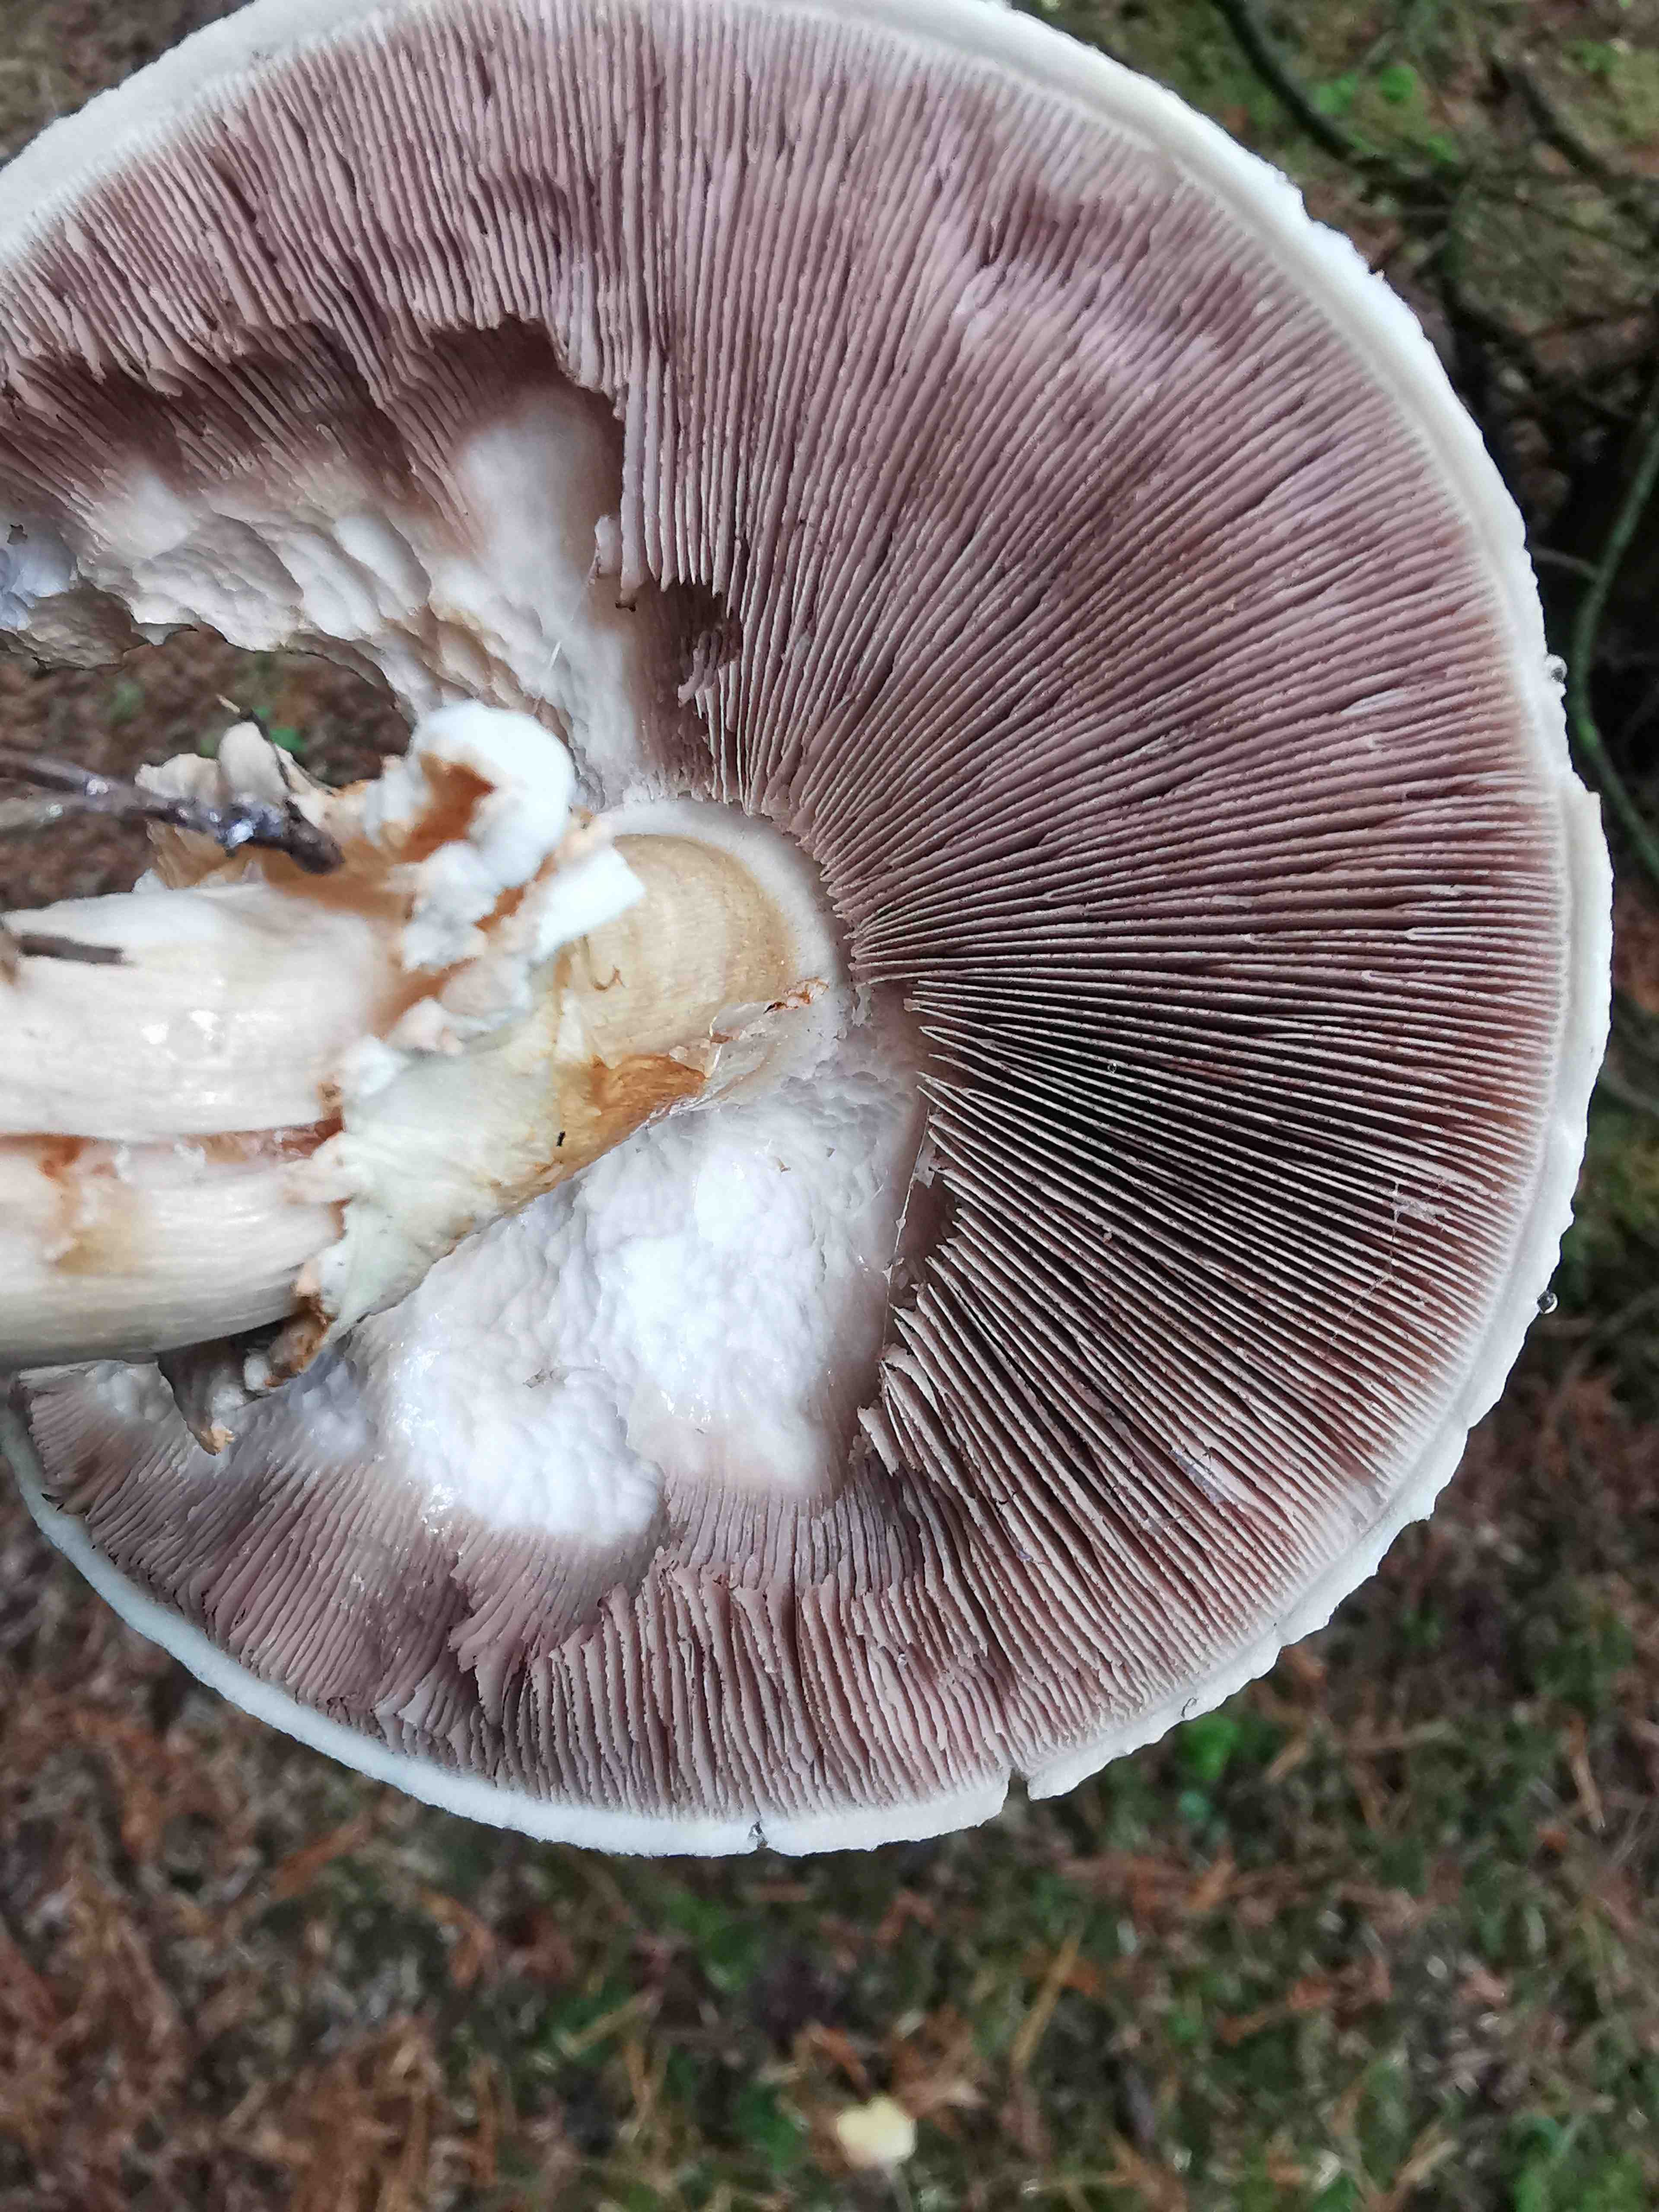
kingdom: Fungi
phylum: Basidiomycota
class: Agaricomycetes
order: Agaricales
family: Agaricaceae
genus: Agaricus
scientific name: Agaricus sylvicola
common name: gulhvid champignon
